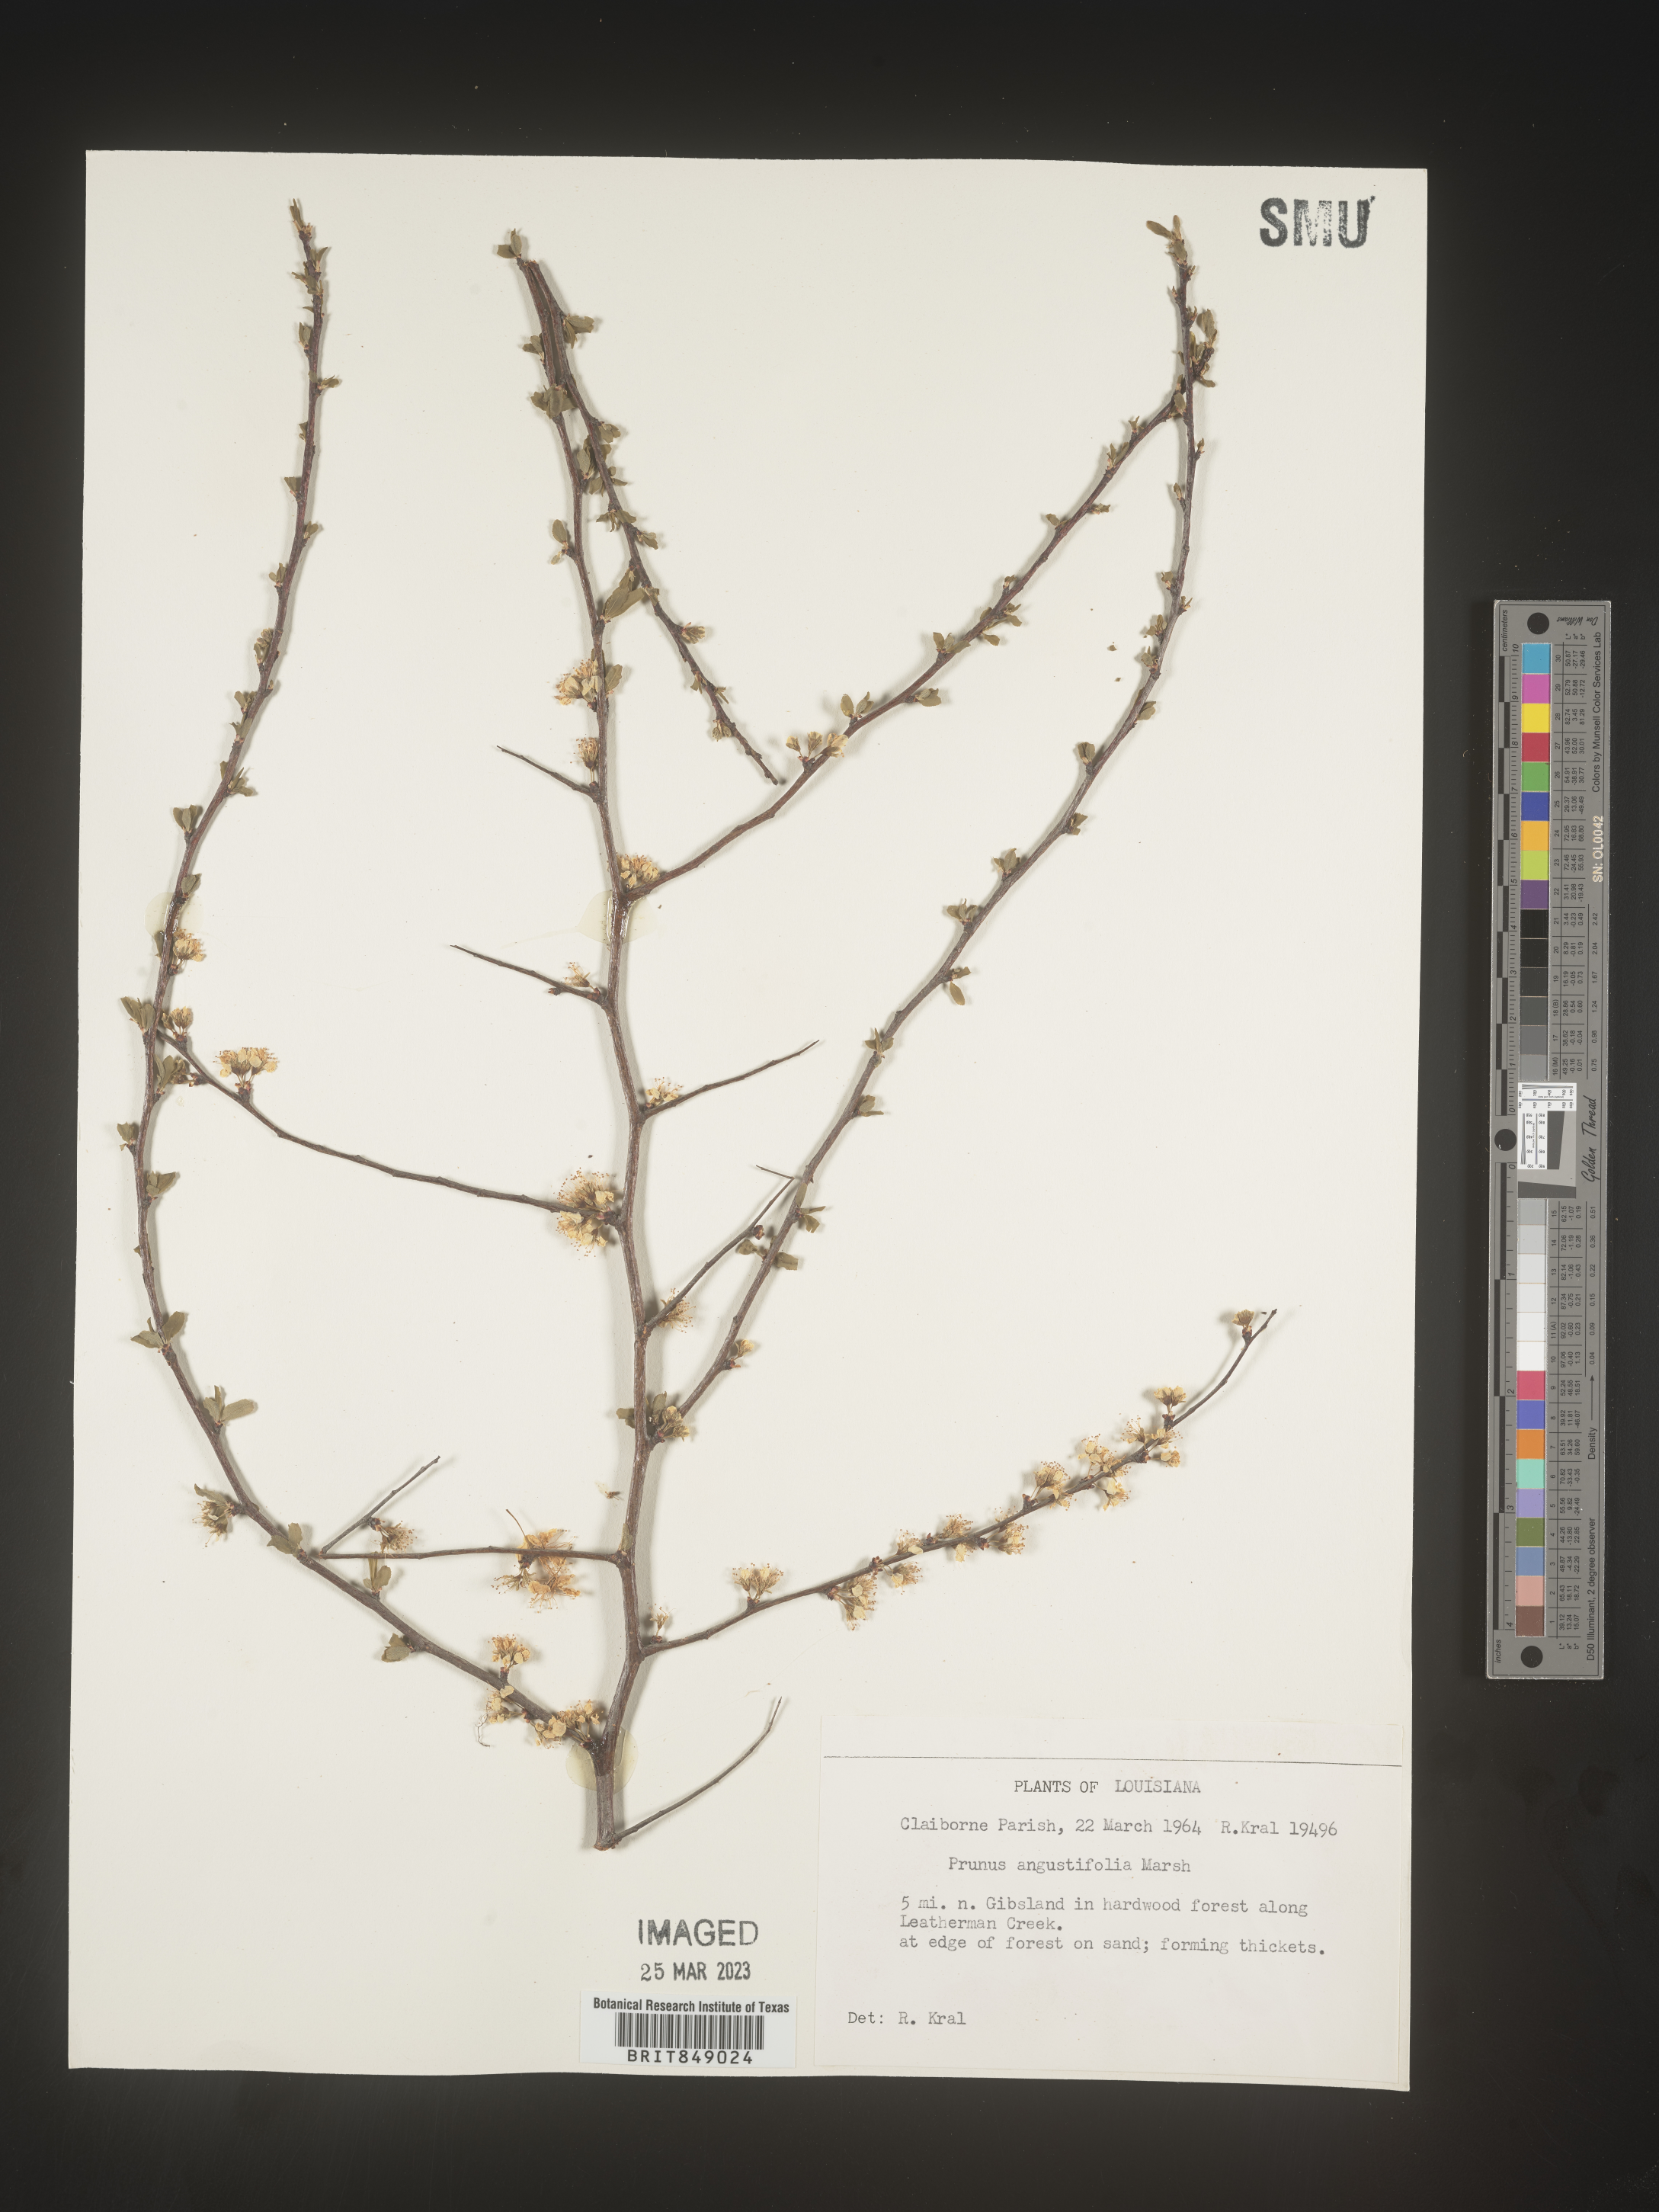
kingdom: Plantae
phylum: Tracheophyta
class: Magnoliopsida
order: Rosales
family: Rosaceae
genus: Prunus
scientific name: Prunus angustifolia
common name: Cherokee plum
